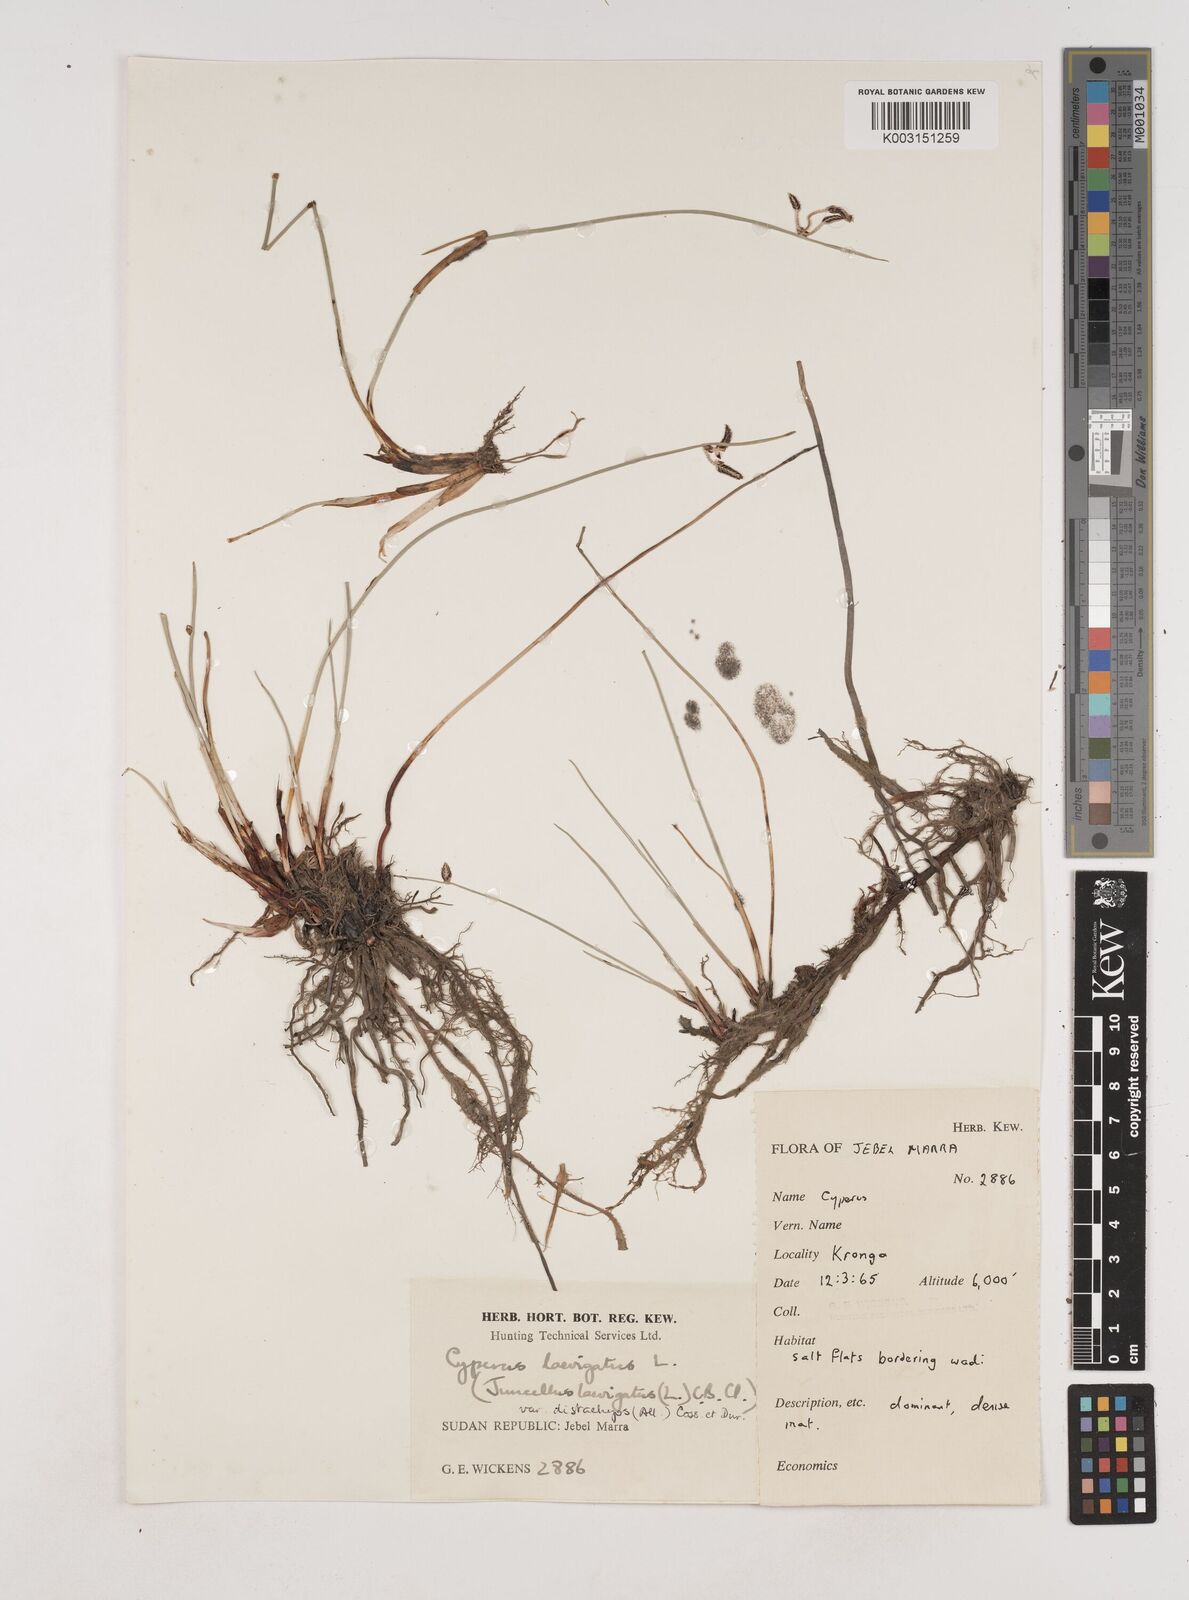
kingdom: Plantae
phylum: Tracheophyta
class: Liliopsida
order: Poales
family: Cyperaceae
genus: Cyperus
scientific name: Cyperus laevigatus
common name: Smooth flat sedge
